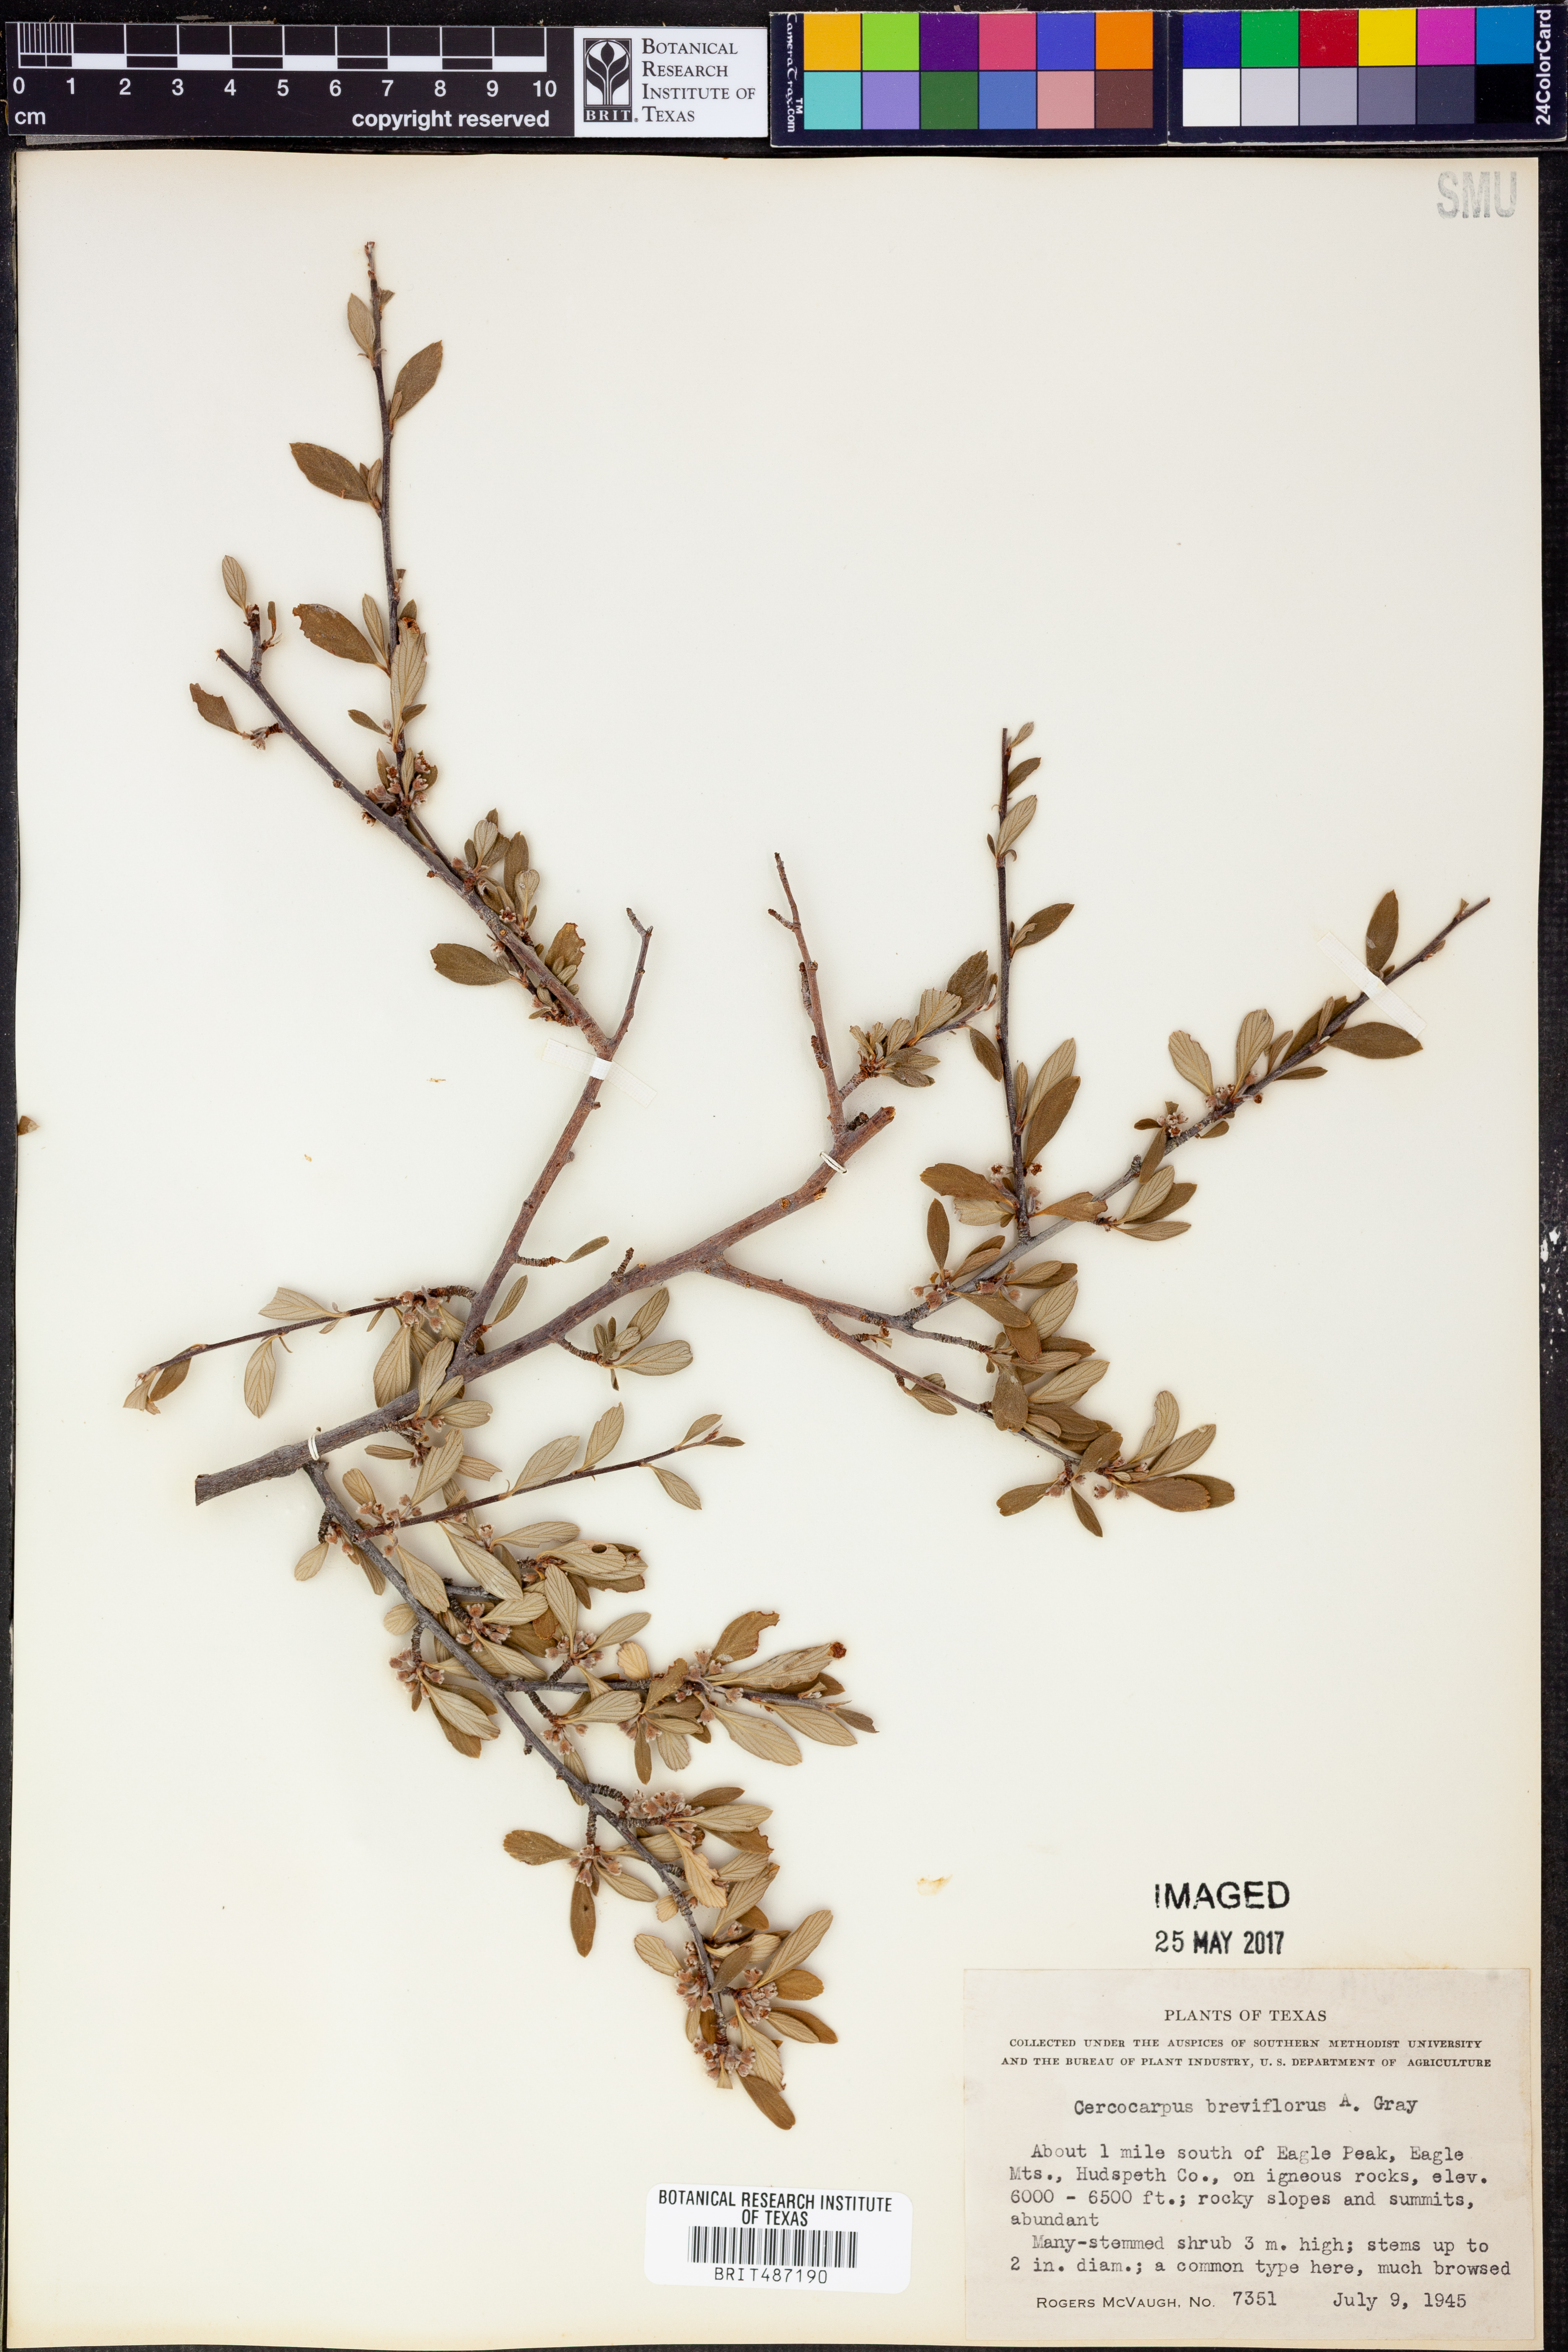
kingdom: Plantae
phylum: Tracheophyta
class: Magnoliopsida
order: Rosales
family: Rosaceae
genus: Cercocarpus
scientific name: Cercocarpus breviflorus
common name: Wright's mountain-mahogany
